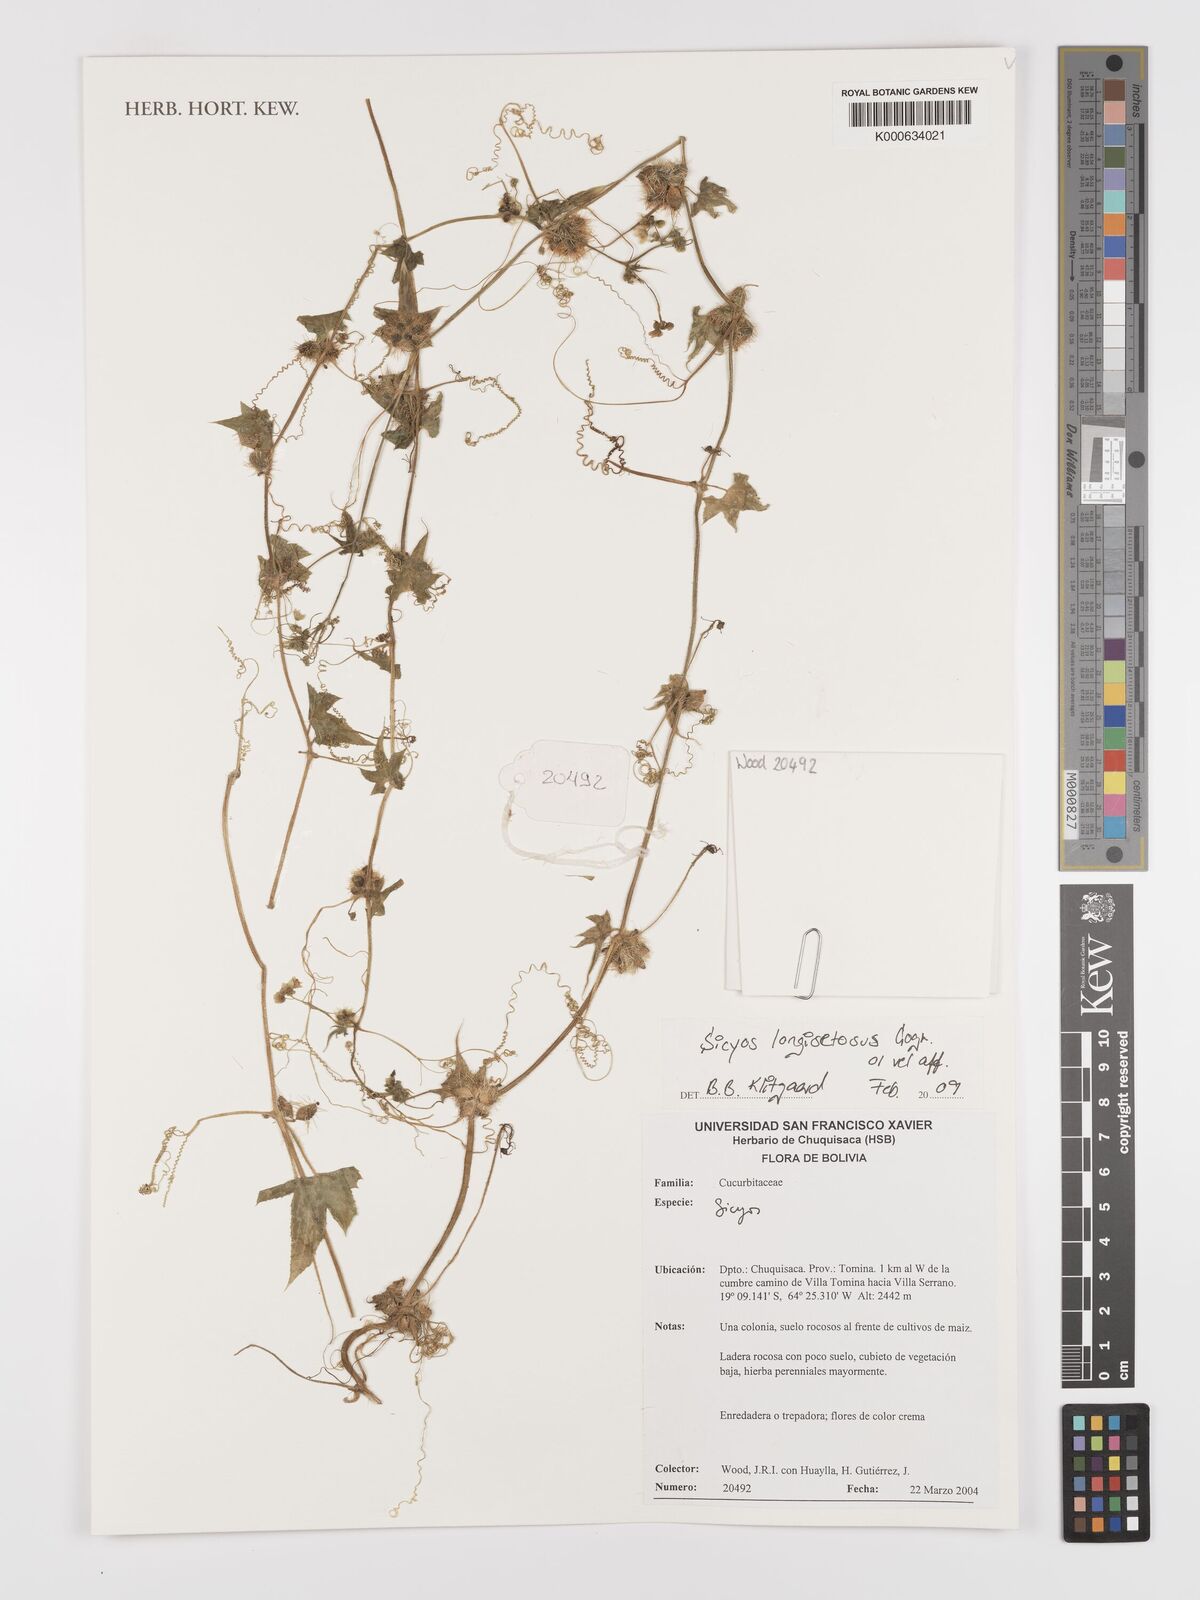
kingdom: Plantae
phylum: Tracheophyta
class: Magnoliopsida
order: Cucurbitales
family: Cucurbitaceae
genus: Sicyos
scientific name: Sicyos
